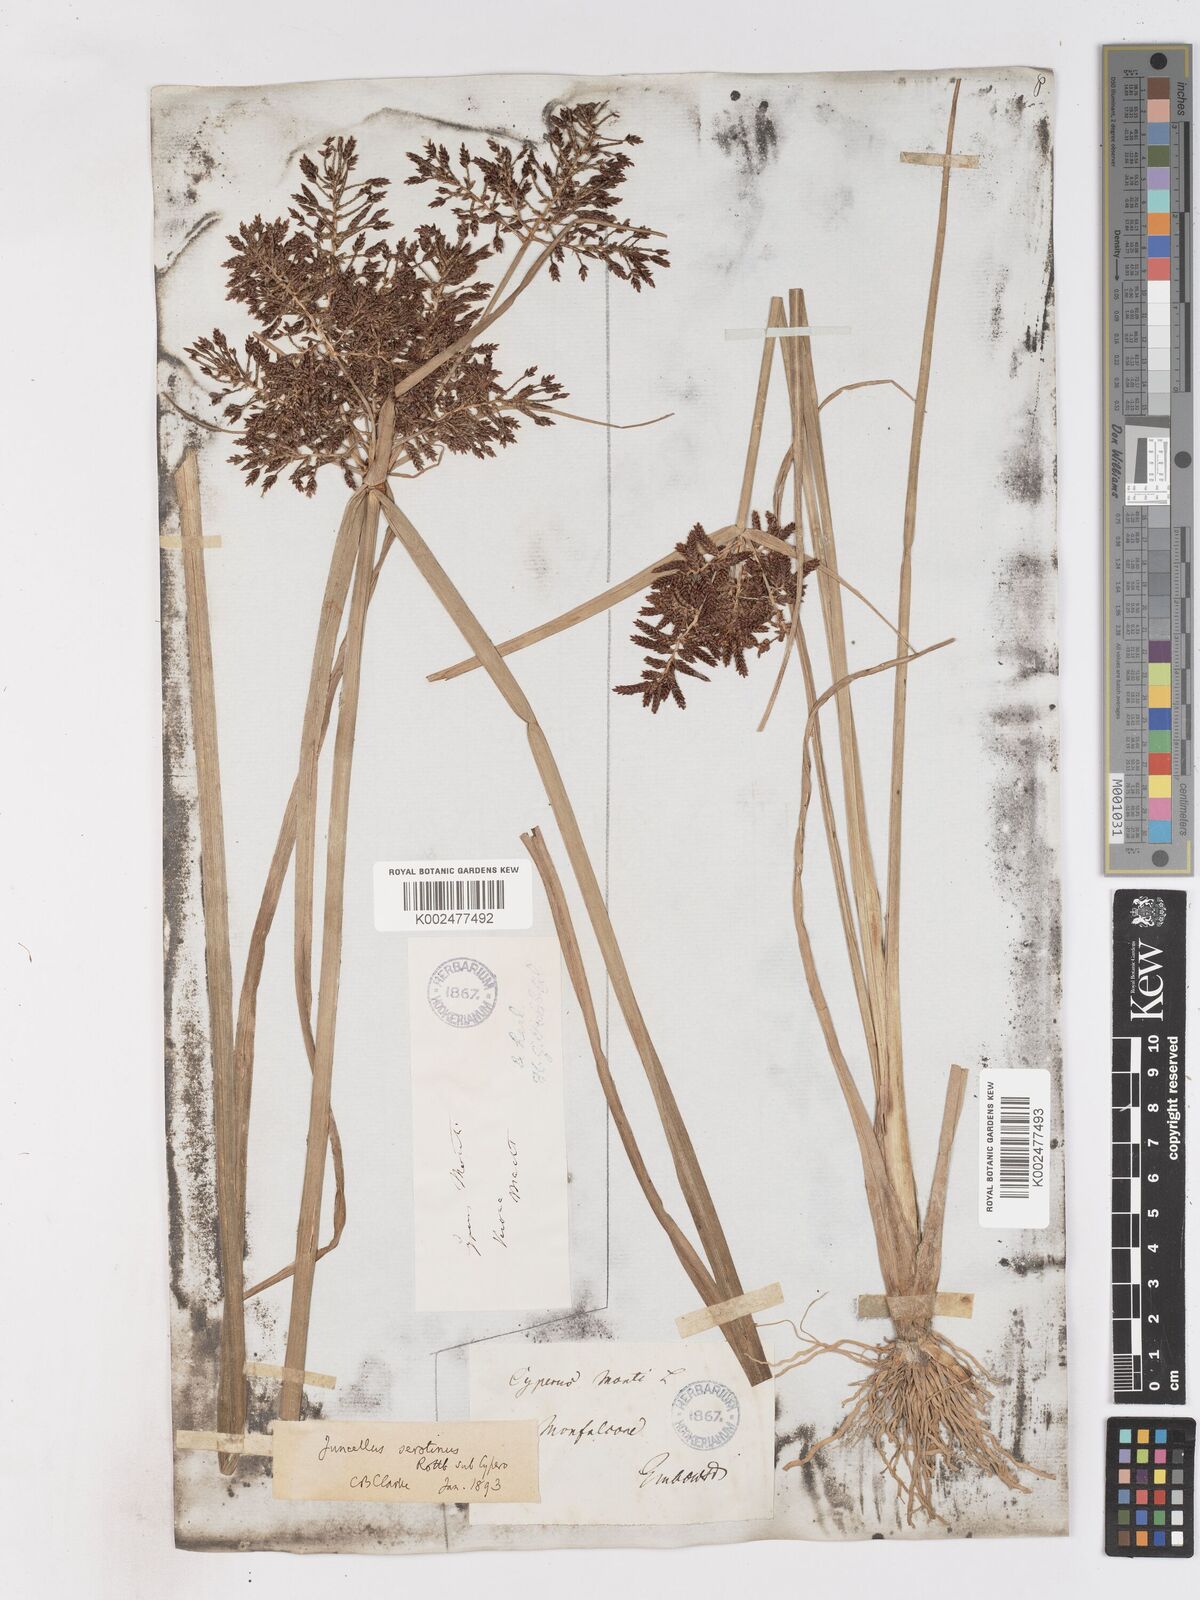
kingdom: Plantae
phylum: Tracheophyta
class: Liliopsida
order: Poales
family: Cyperaceae
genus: Cyperus
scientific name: Cyperus serotinus
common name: Tidalmarsh flatsedge
